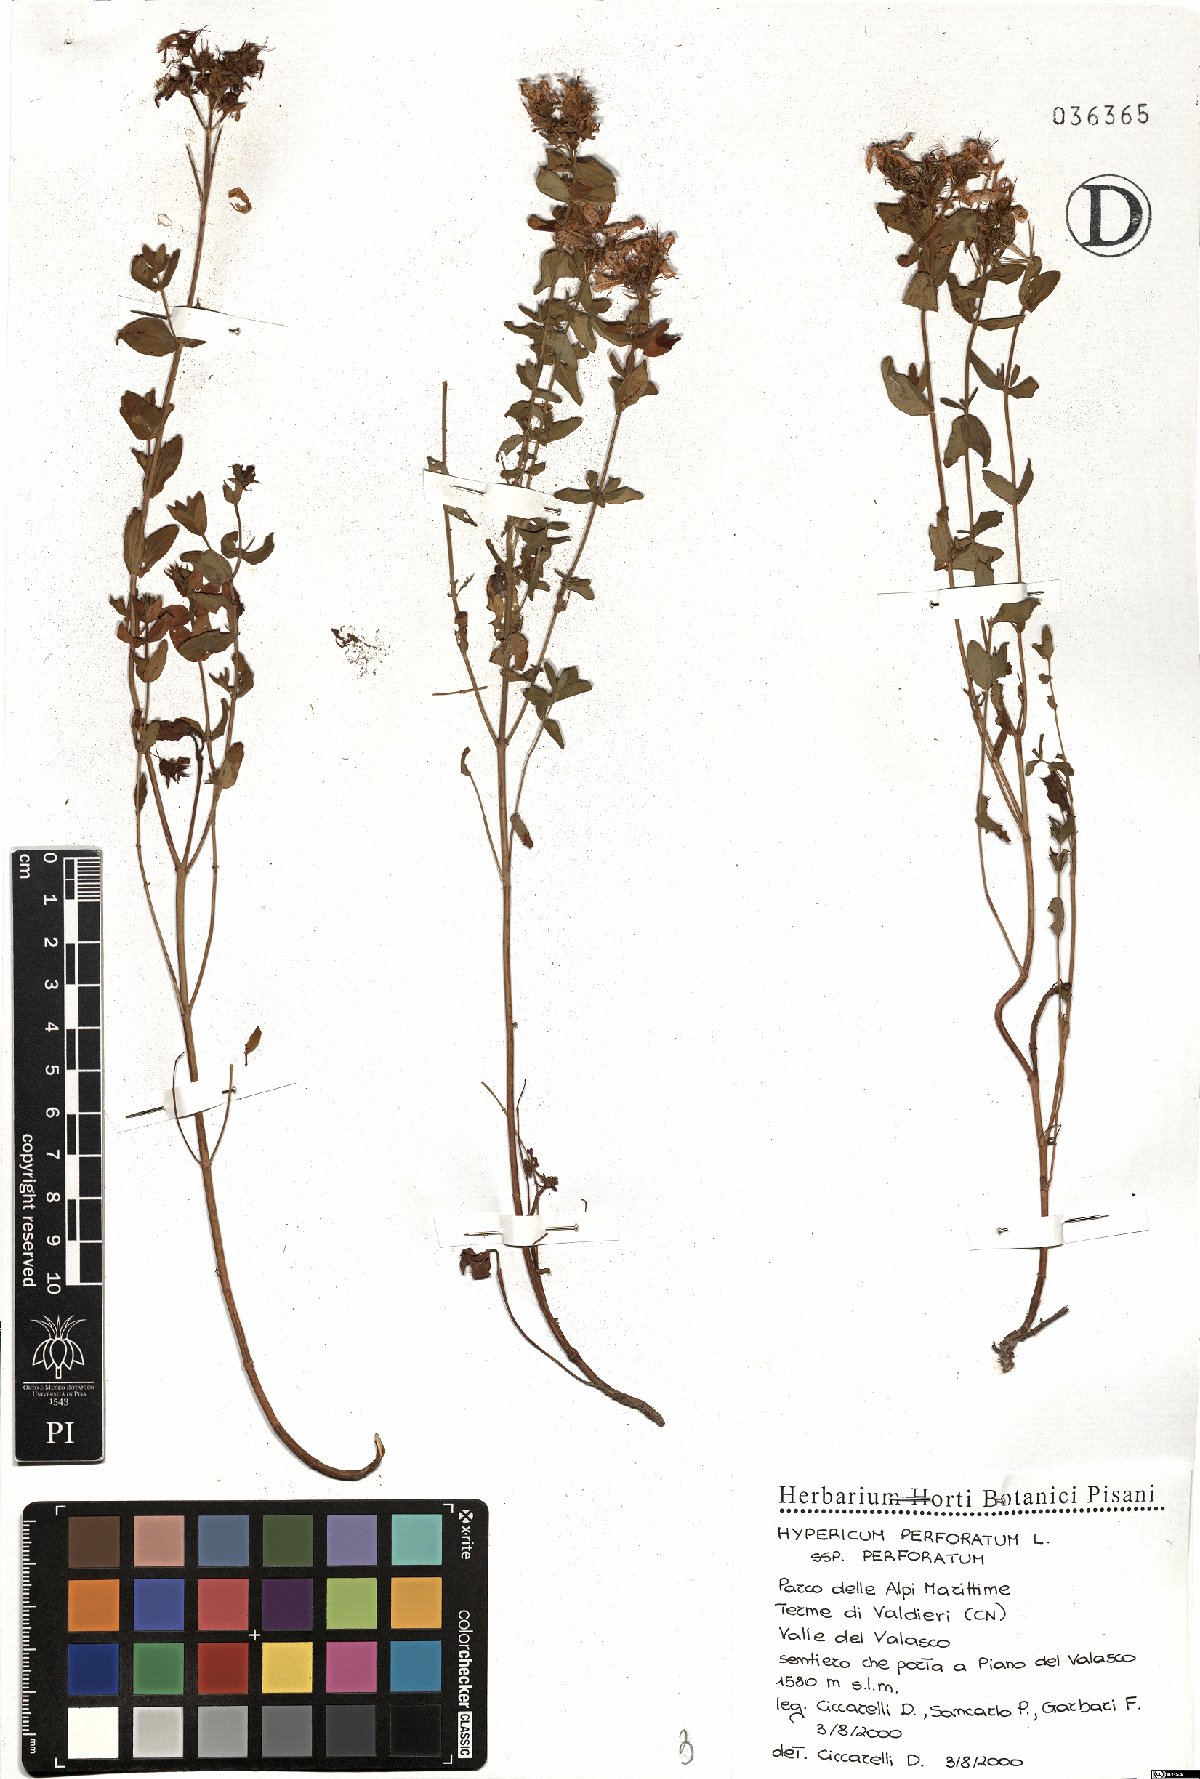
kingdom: Plantae
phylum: Tracheophyta
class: Magnoliopsida
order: Malpighiales
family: Hypericaceae
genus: Hypericum
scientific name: Hypericum perforatum
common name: Common st. johnswort
